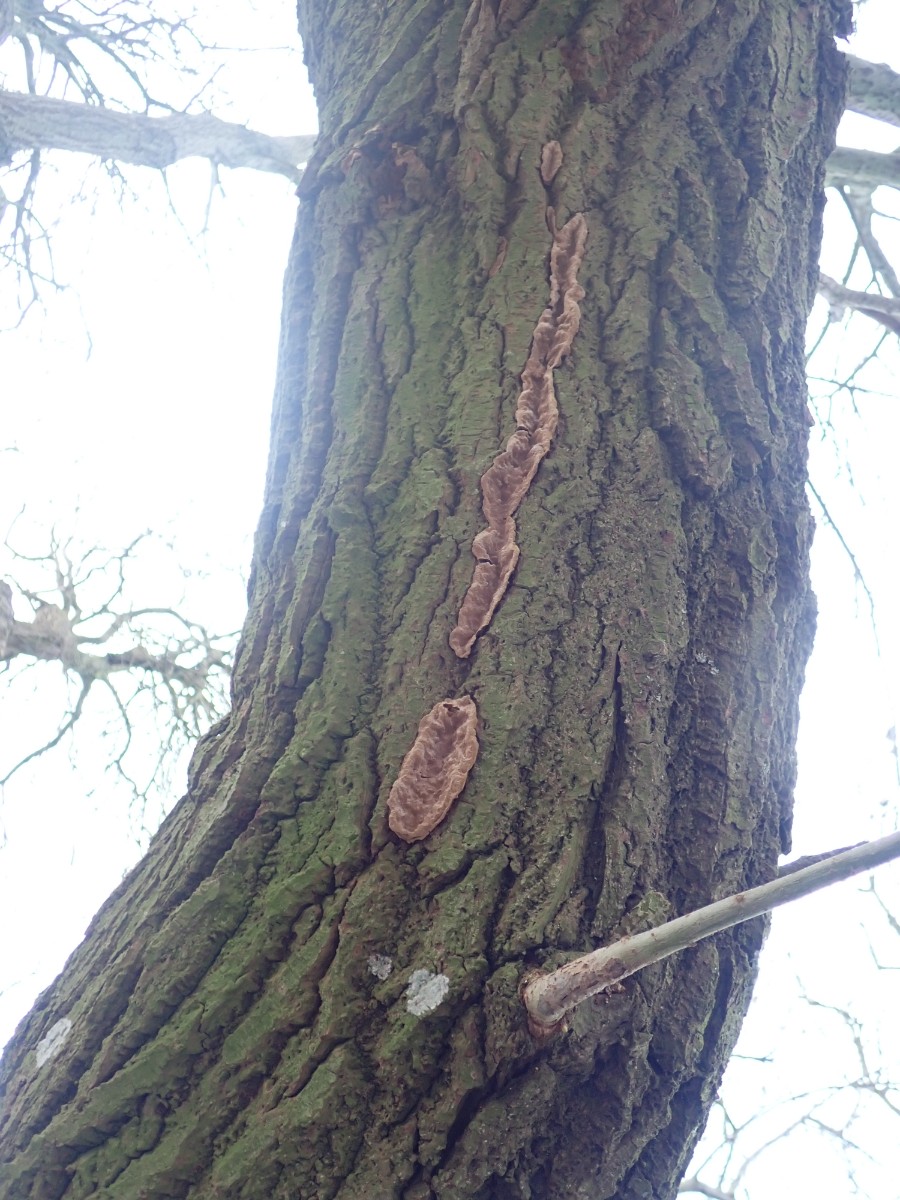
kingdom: Fungi
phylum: Basidiomycota
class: Agaricomycetes
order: Hymenochaetales
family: Hymenochaetaceae
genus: Phellinopsis
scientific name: Phellinopsis conchata
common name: pile-ildporesvamp
